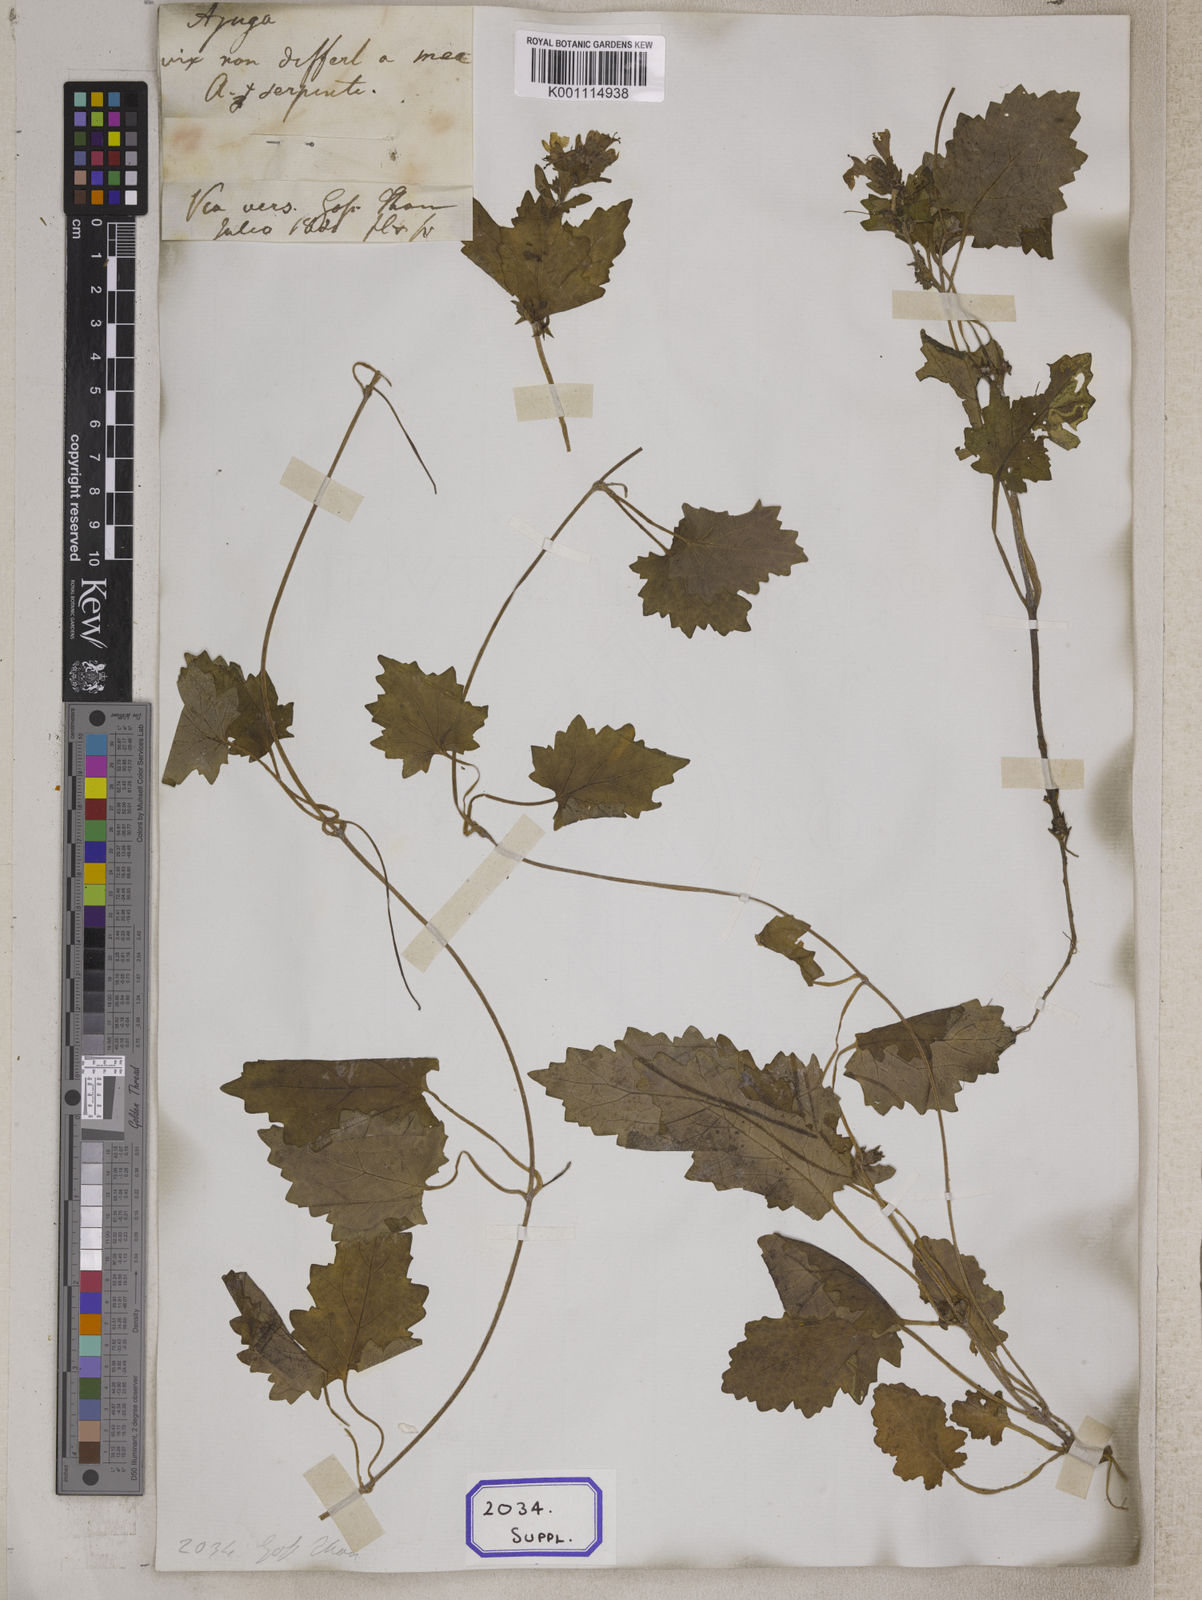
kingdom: Plantae
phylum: Tracheophyta
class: Magnoliopsida
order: Lamiales
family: Lamiaceae
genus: Ajuga
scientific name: Ajuga lobata
